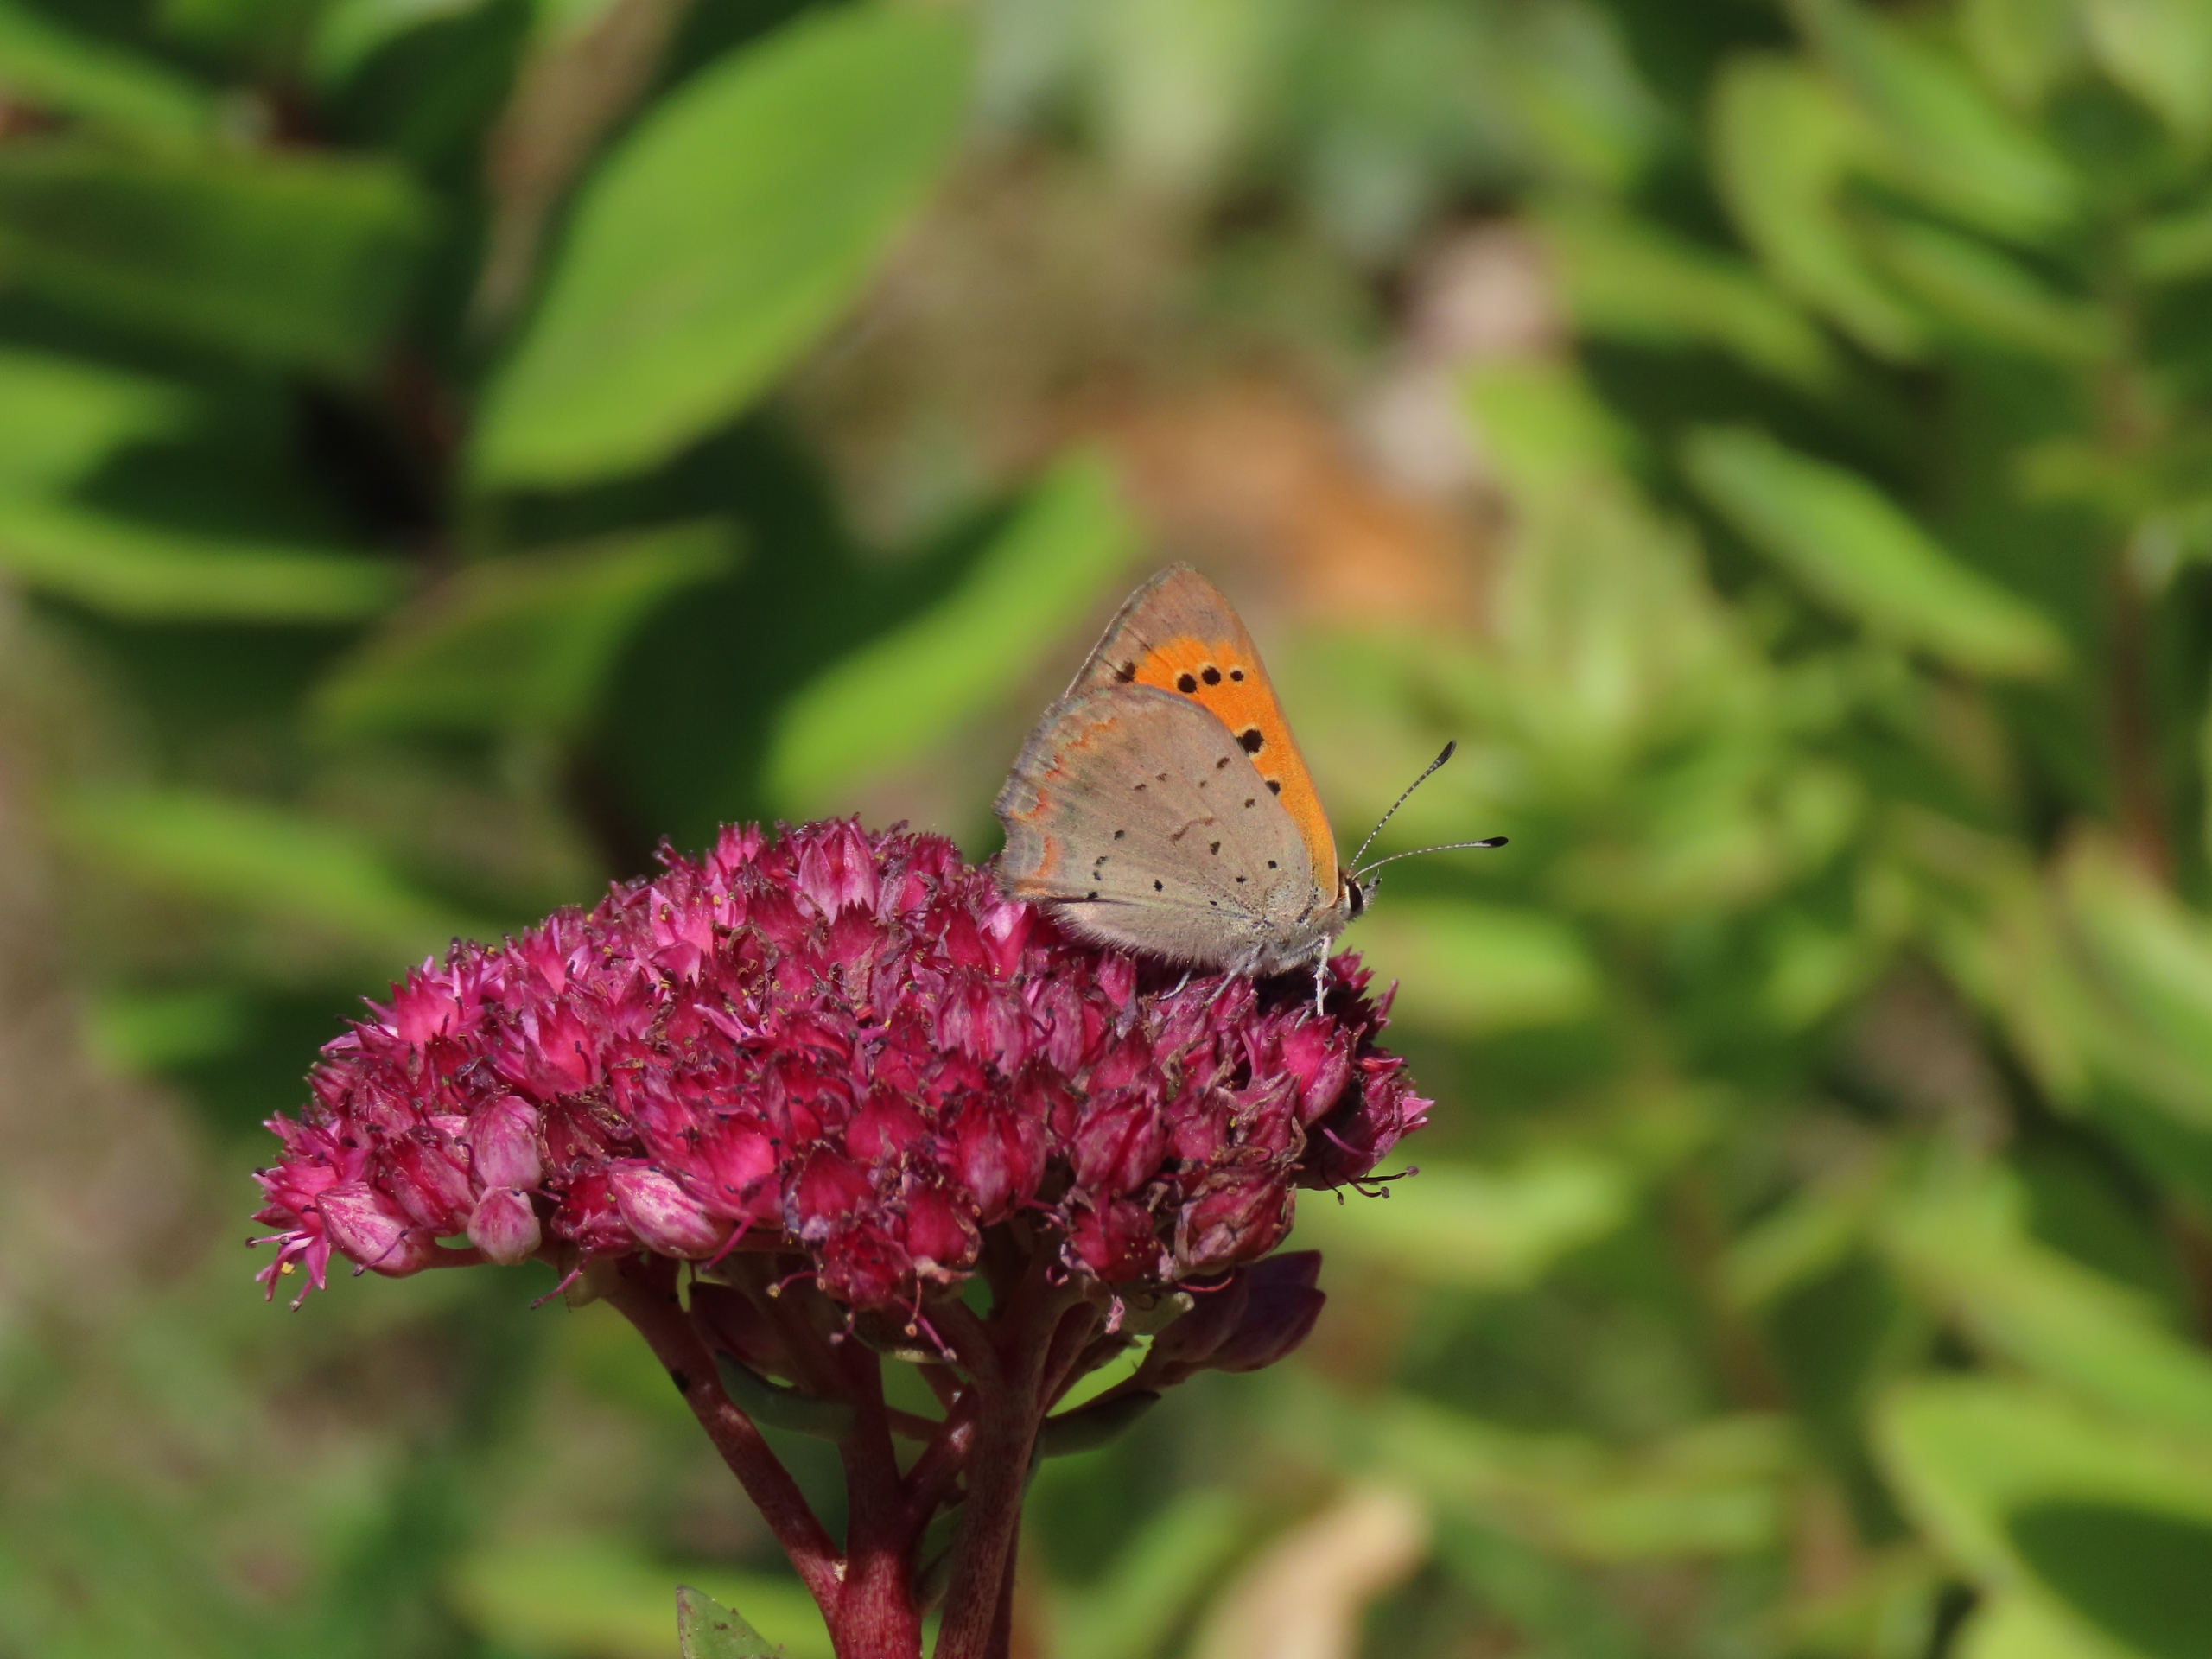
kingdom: Animalia
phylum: Arthropoda
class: Insecta
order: Lepidoptera
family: Lycaenidae
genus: Lycaena
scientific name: Lycaena phlaeas
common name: Lille ildfugl
